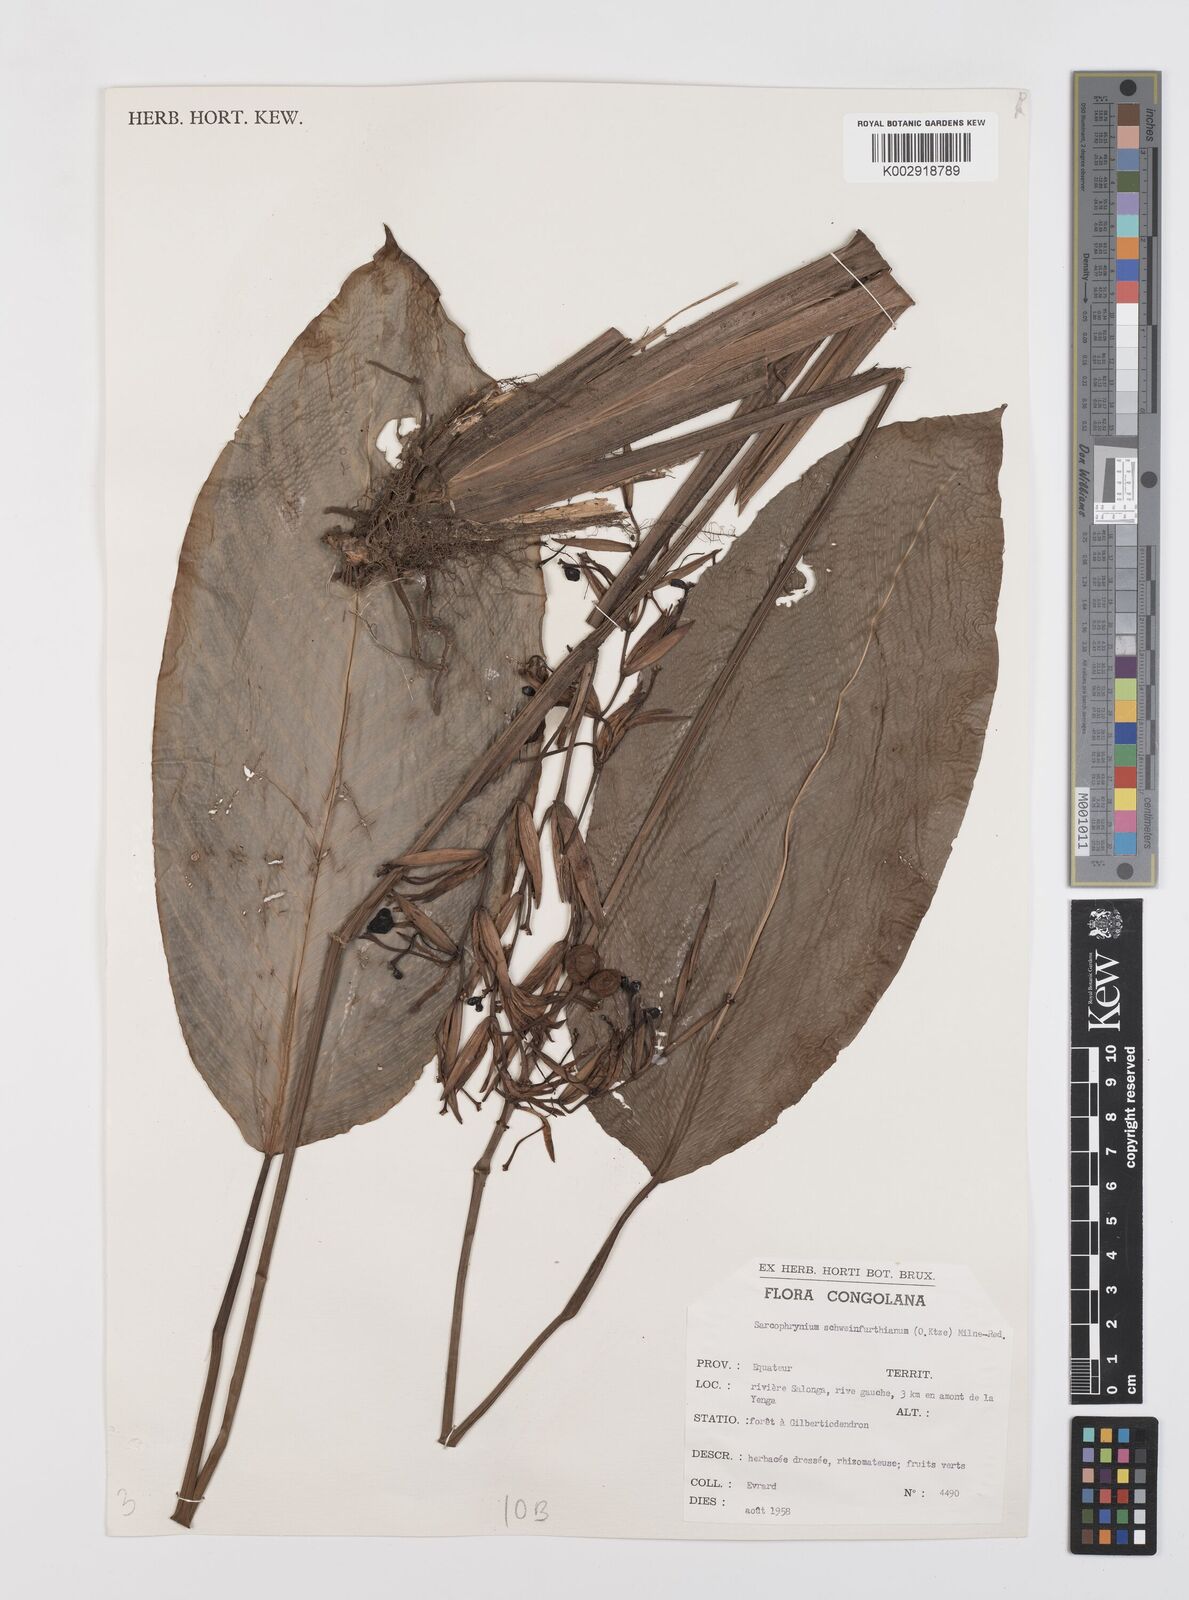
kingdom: Plantae
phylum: Tracheophyta
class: Liliopsida
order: Zingiberales
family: Marantaceae
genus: Sarcophrynium
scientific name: Sarcophrynium schweinfurthianum
